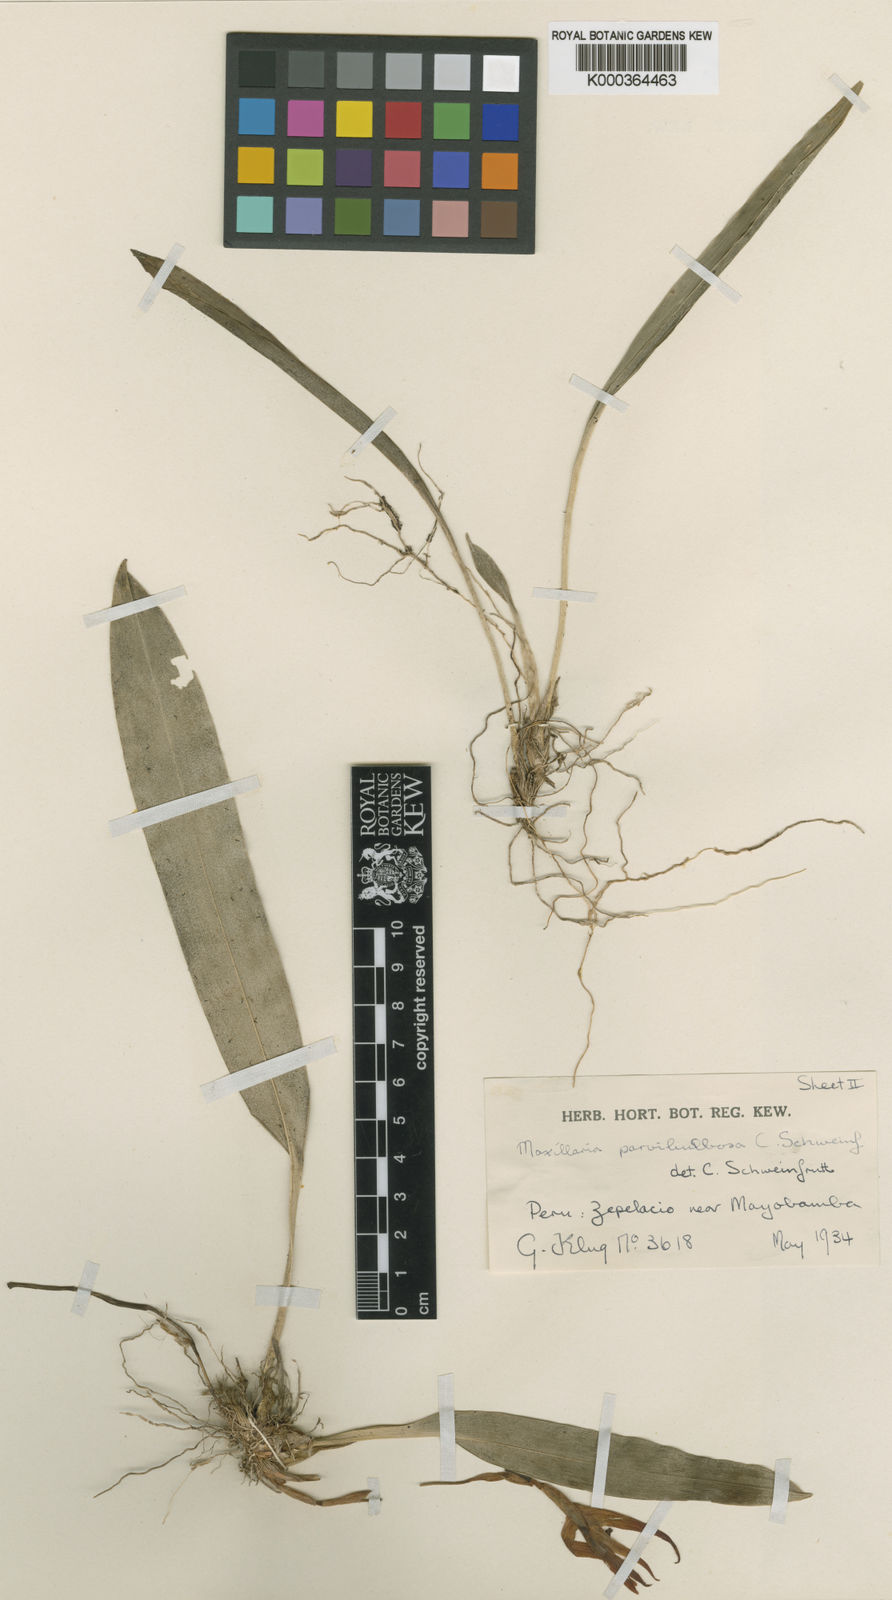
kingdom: Plantae
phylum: Tracheophyta
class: Liliopsida
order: Asparagales
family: Orchidaceae
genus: Maxillaria
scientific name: Maxillaria parvibulbosa
